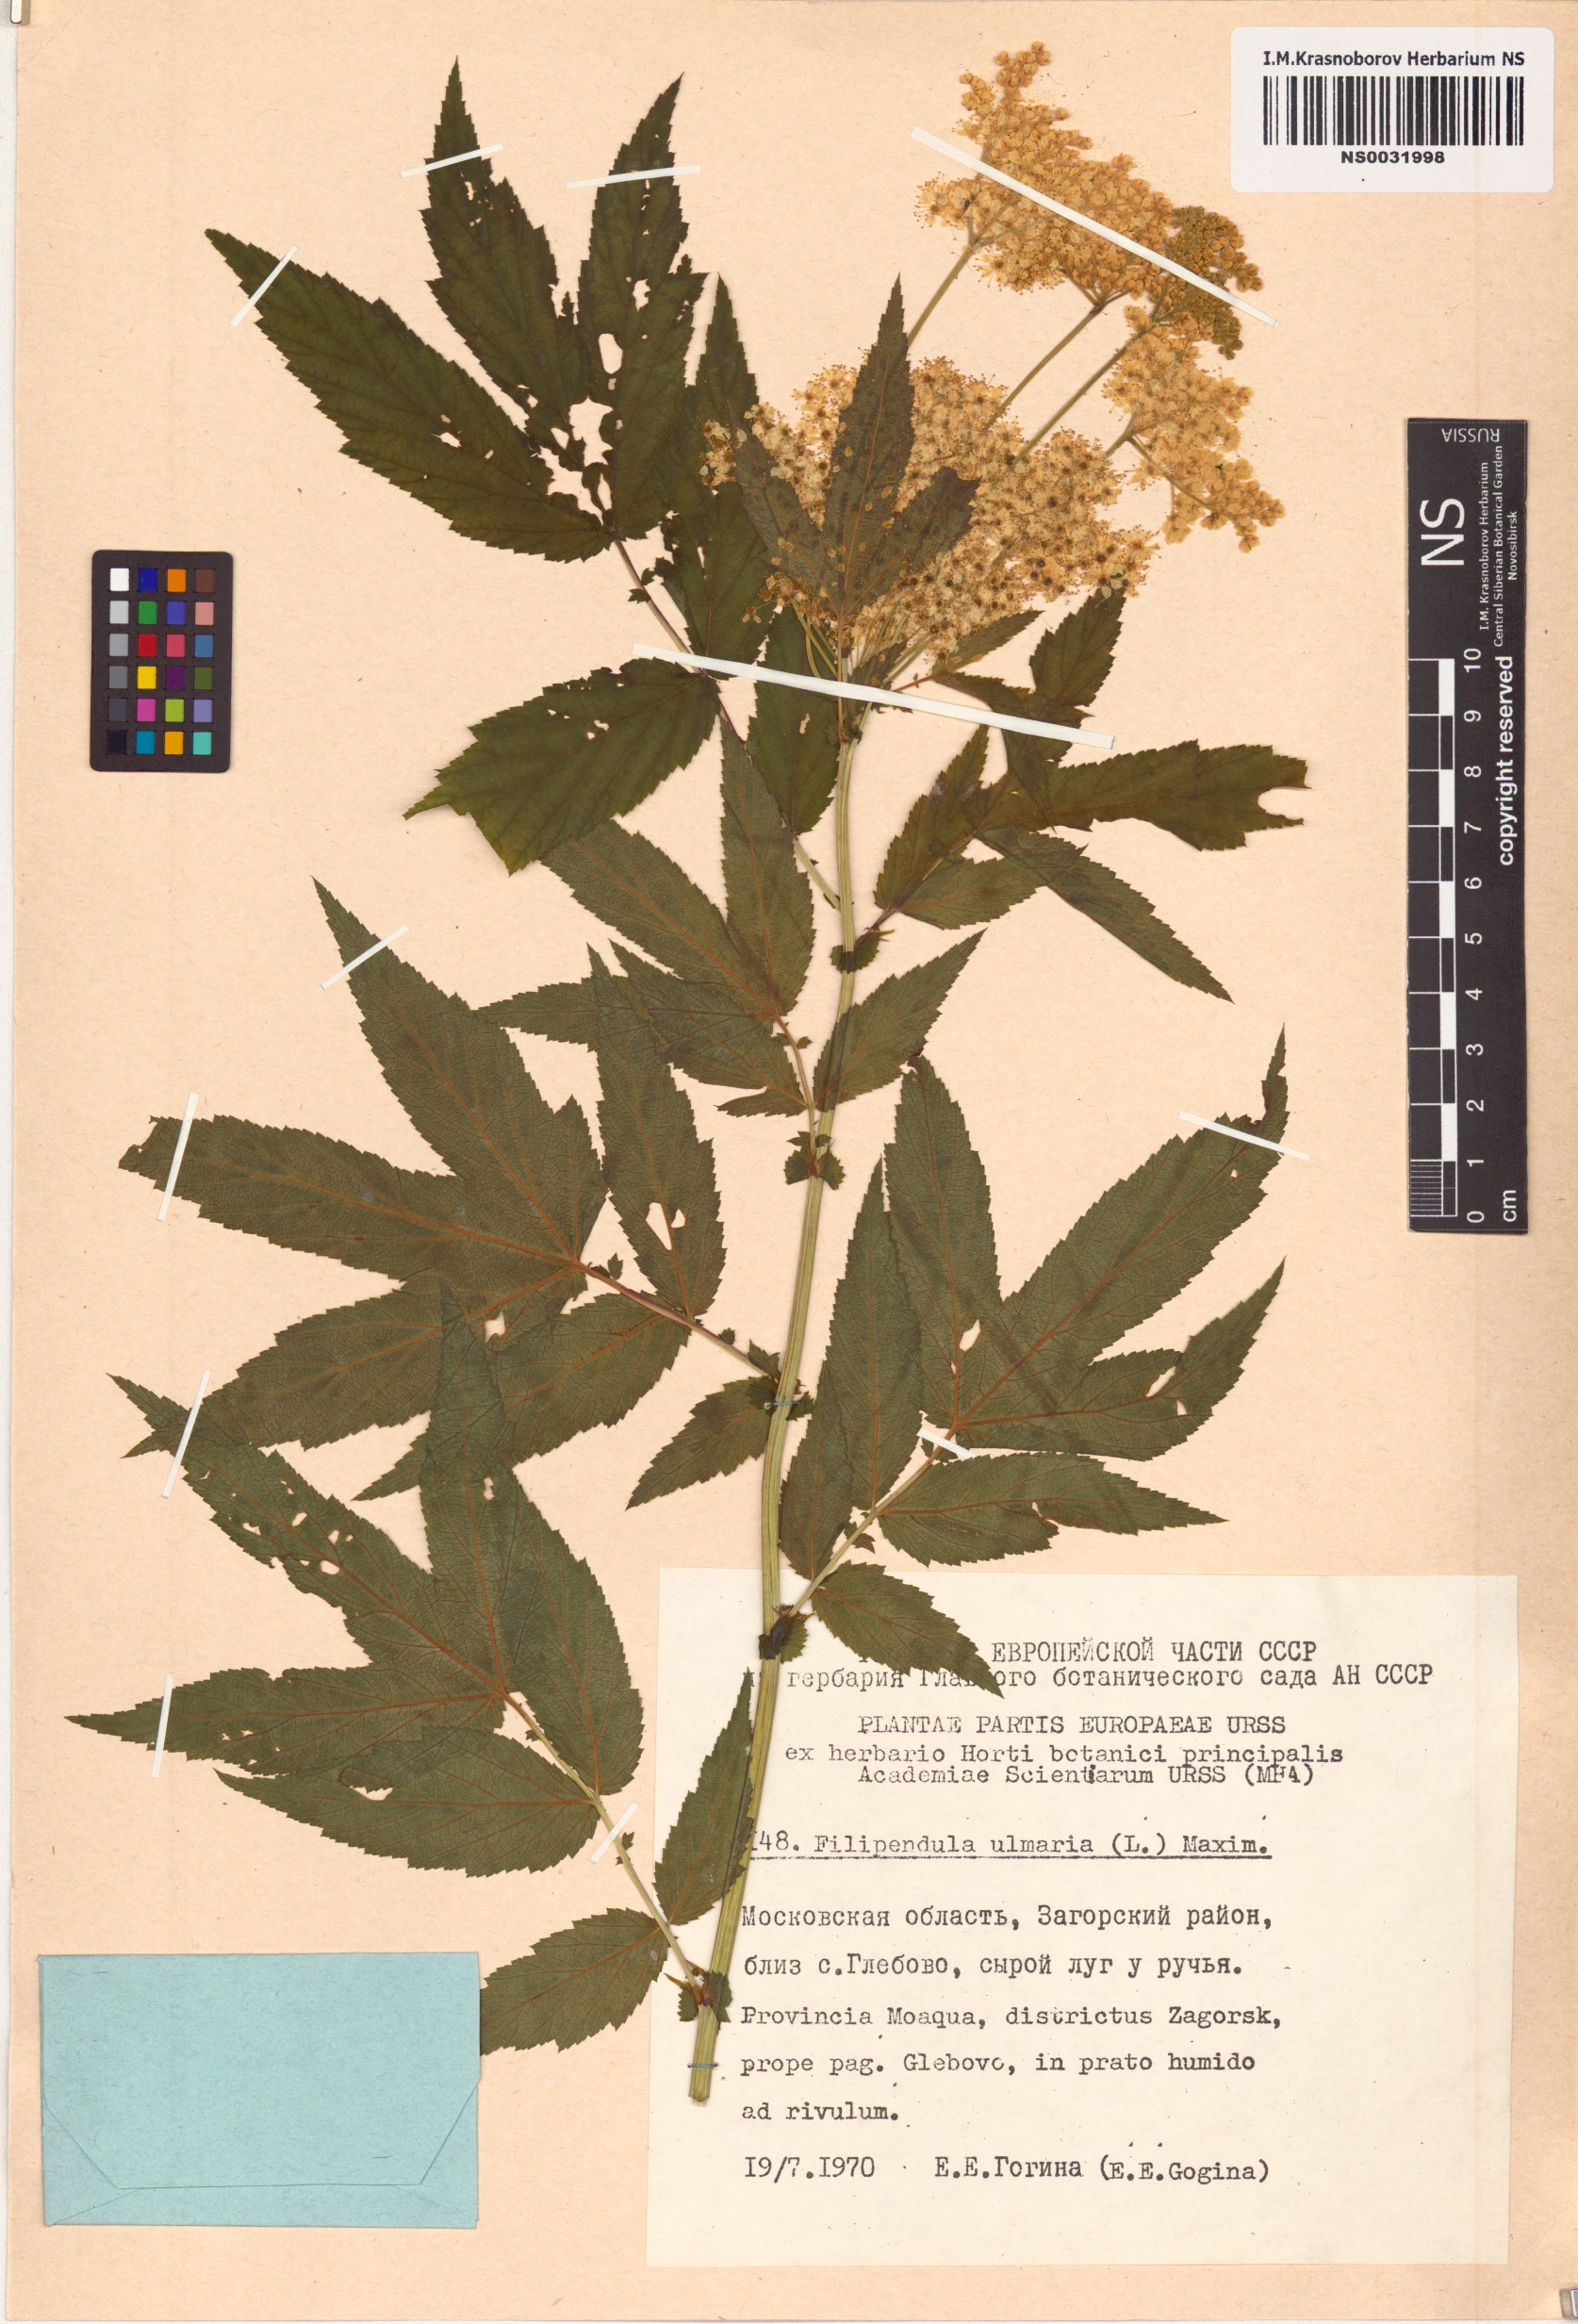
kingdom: Plantae
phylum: Tracheophyta
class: Magnoliopsida
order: Rosales
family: Rosaceae
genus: Filipendula
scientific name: Filipendula ulmaria
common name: Meadowsweet
